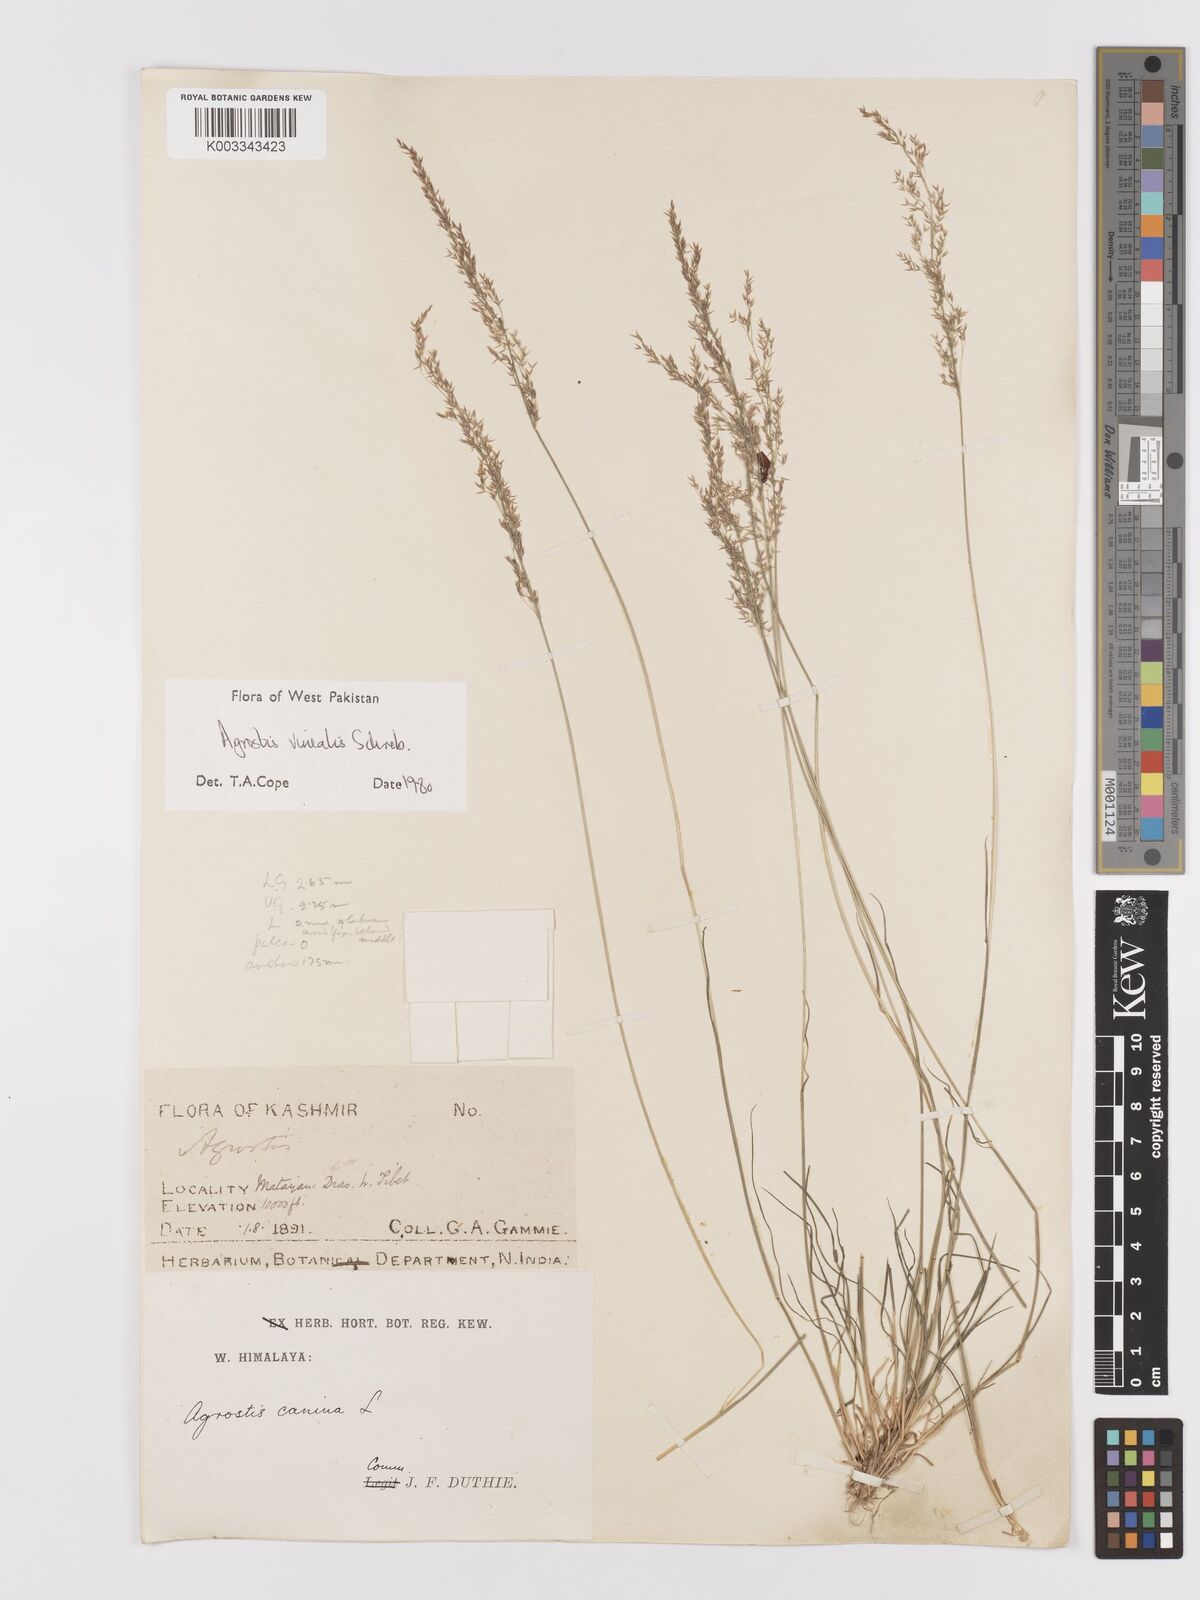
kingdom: Plantae
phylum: Tracheophyta
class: Liliopsida
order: Poales
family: Poaceae
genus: Agrostis
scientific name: Agrostis vinealis
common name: Brown bent
